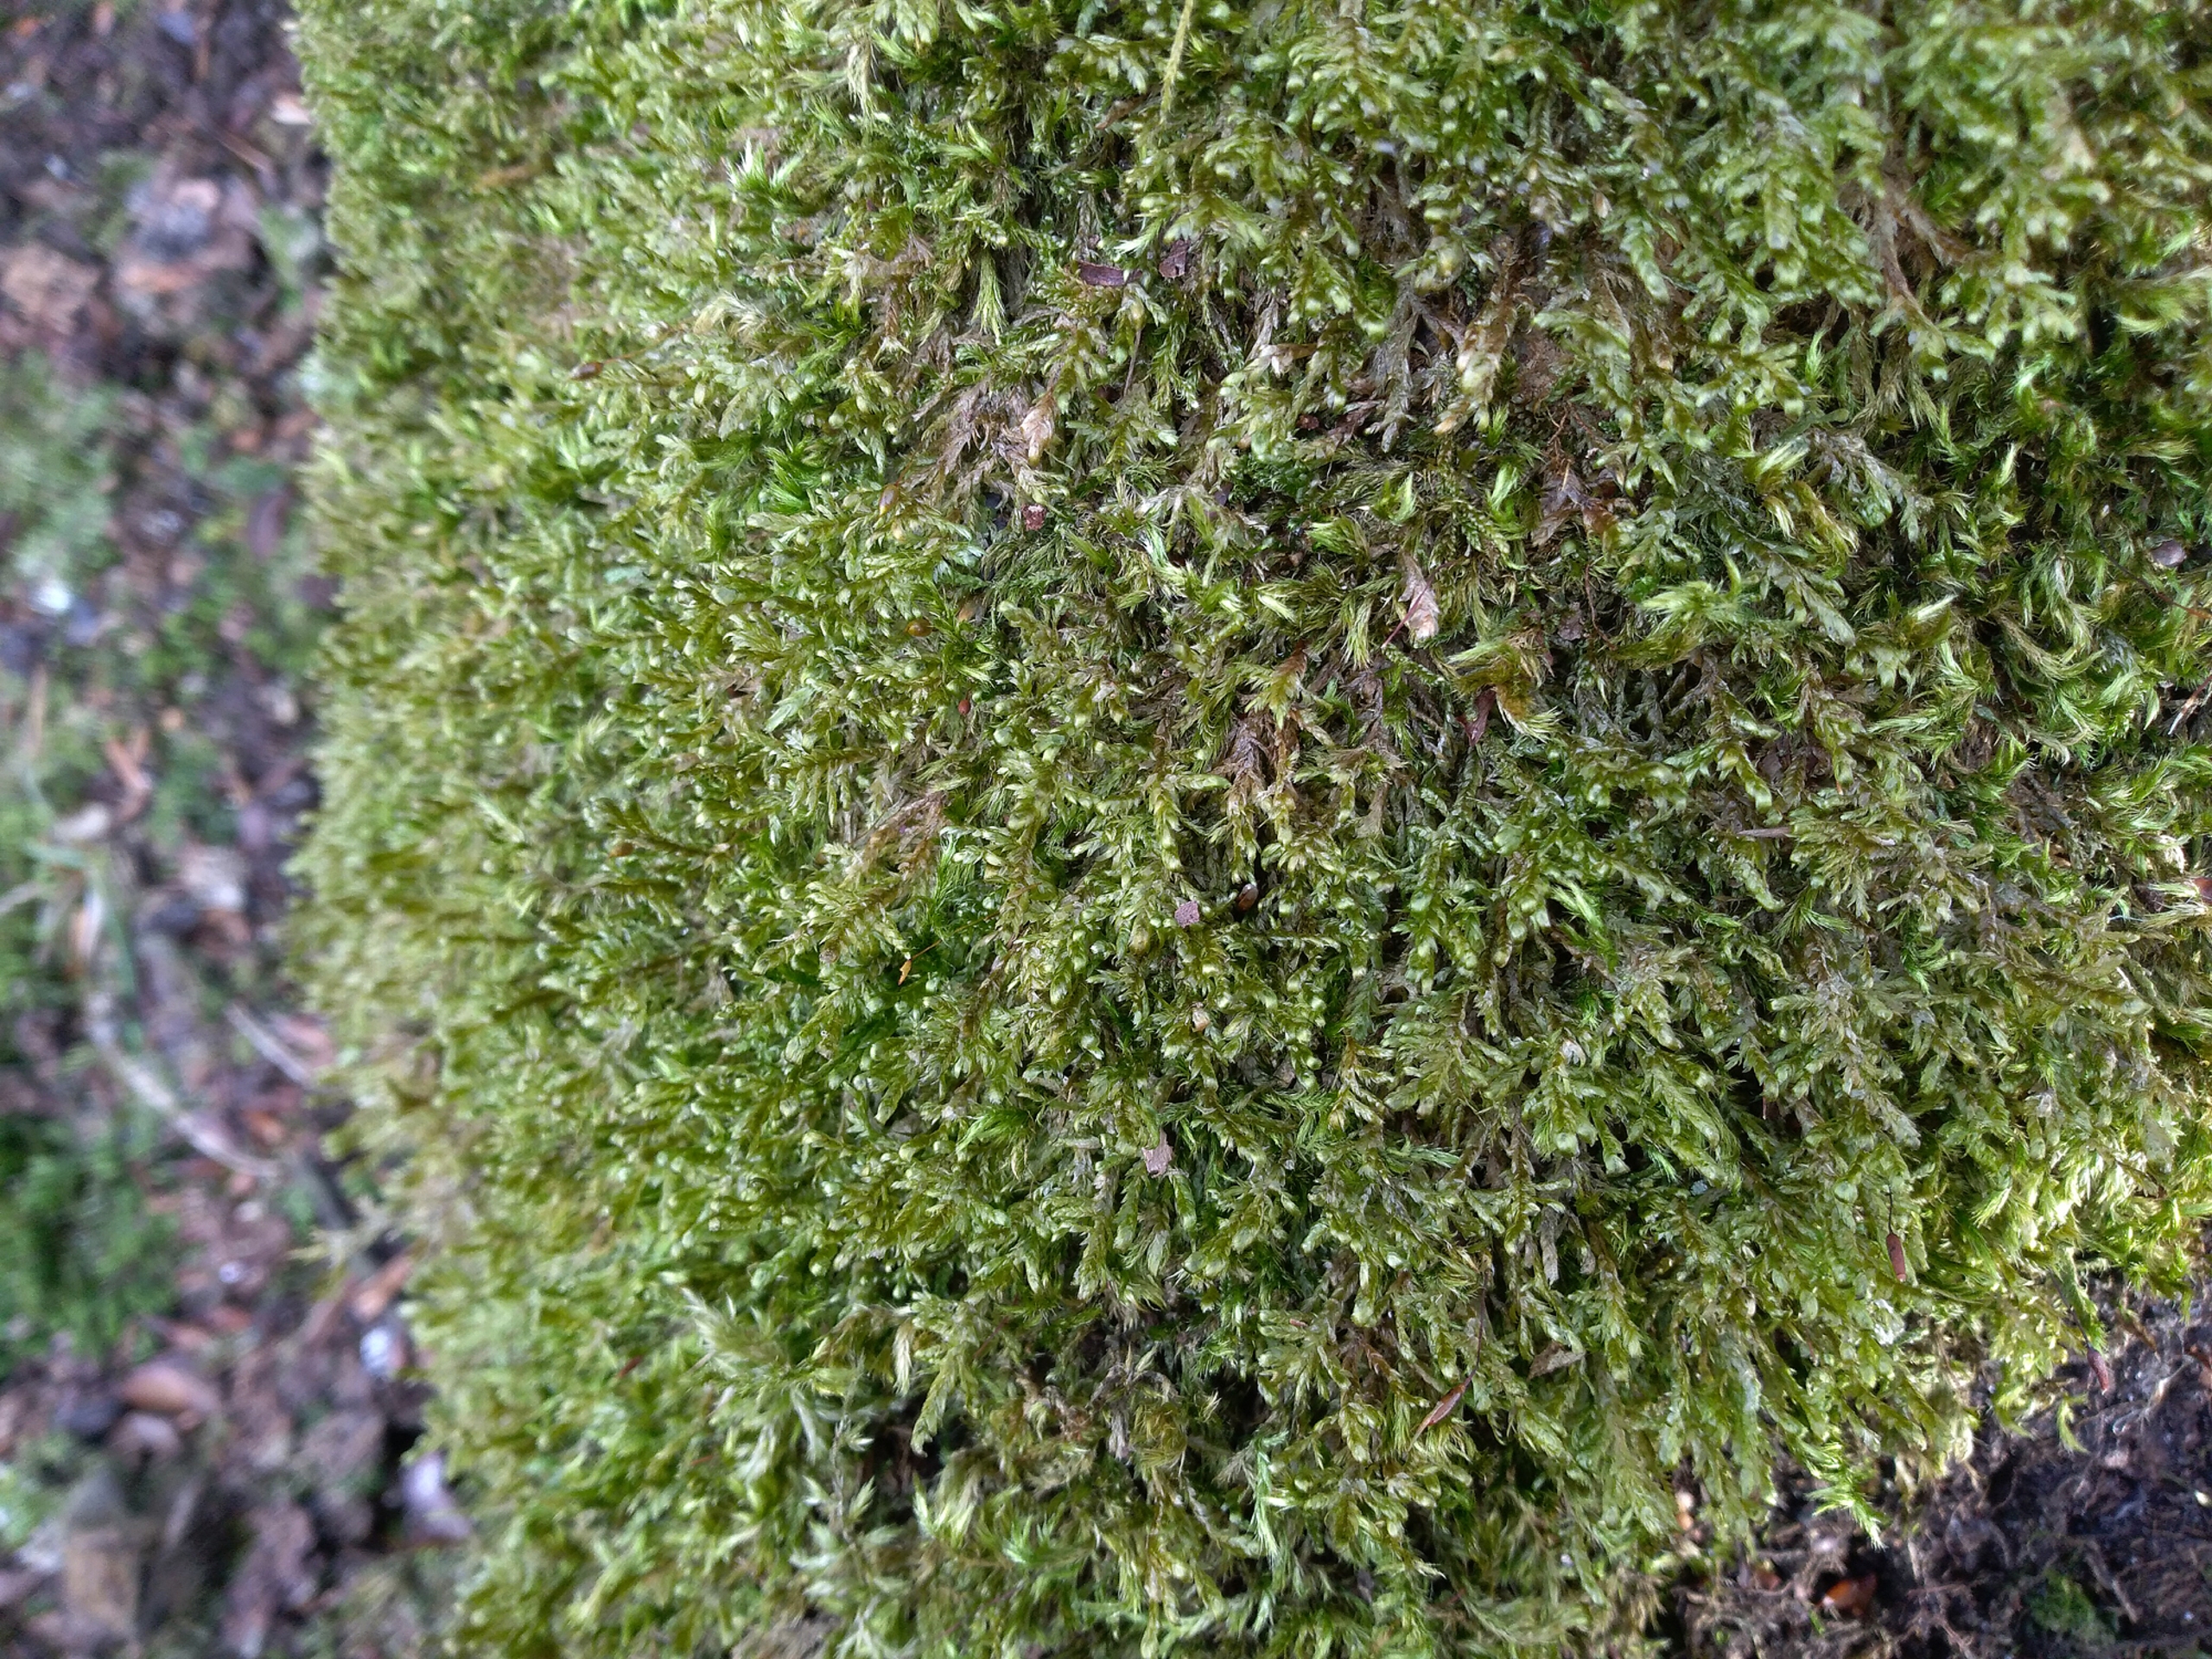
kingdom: Plantae
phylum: Bryophyta
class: Bryopsida
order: Hypnales
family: Neckeraceae
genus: Alleniella
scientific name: Alleniella complanata
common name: Almindelig fladmos
